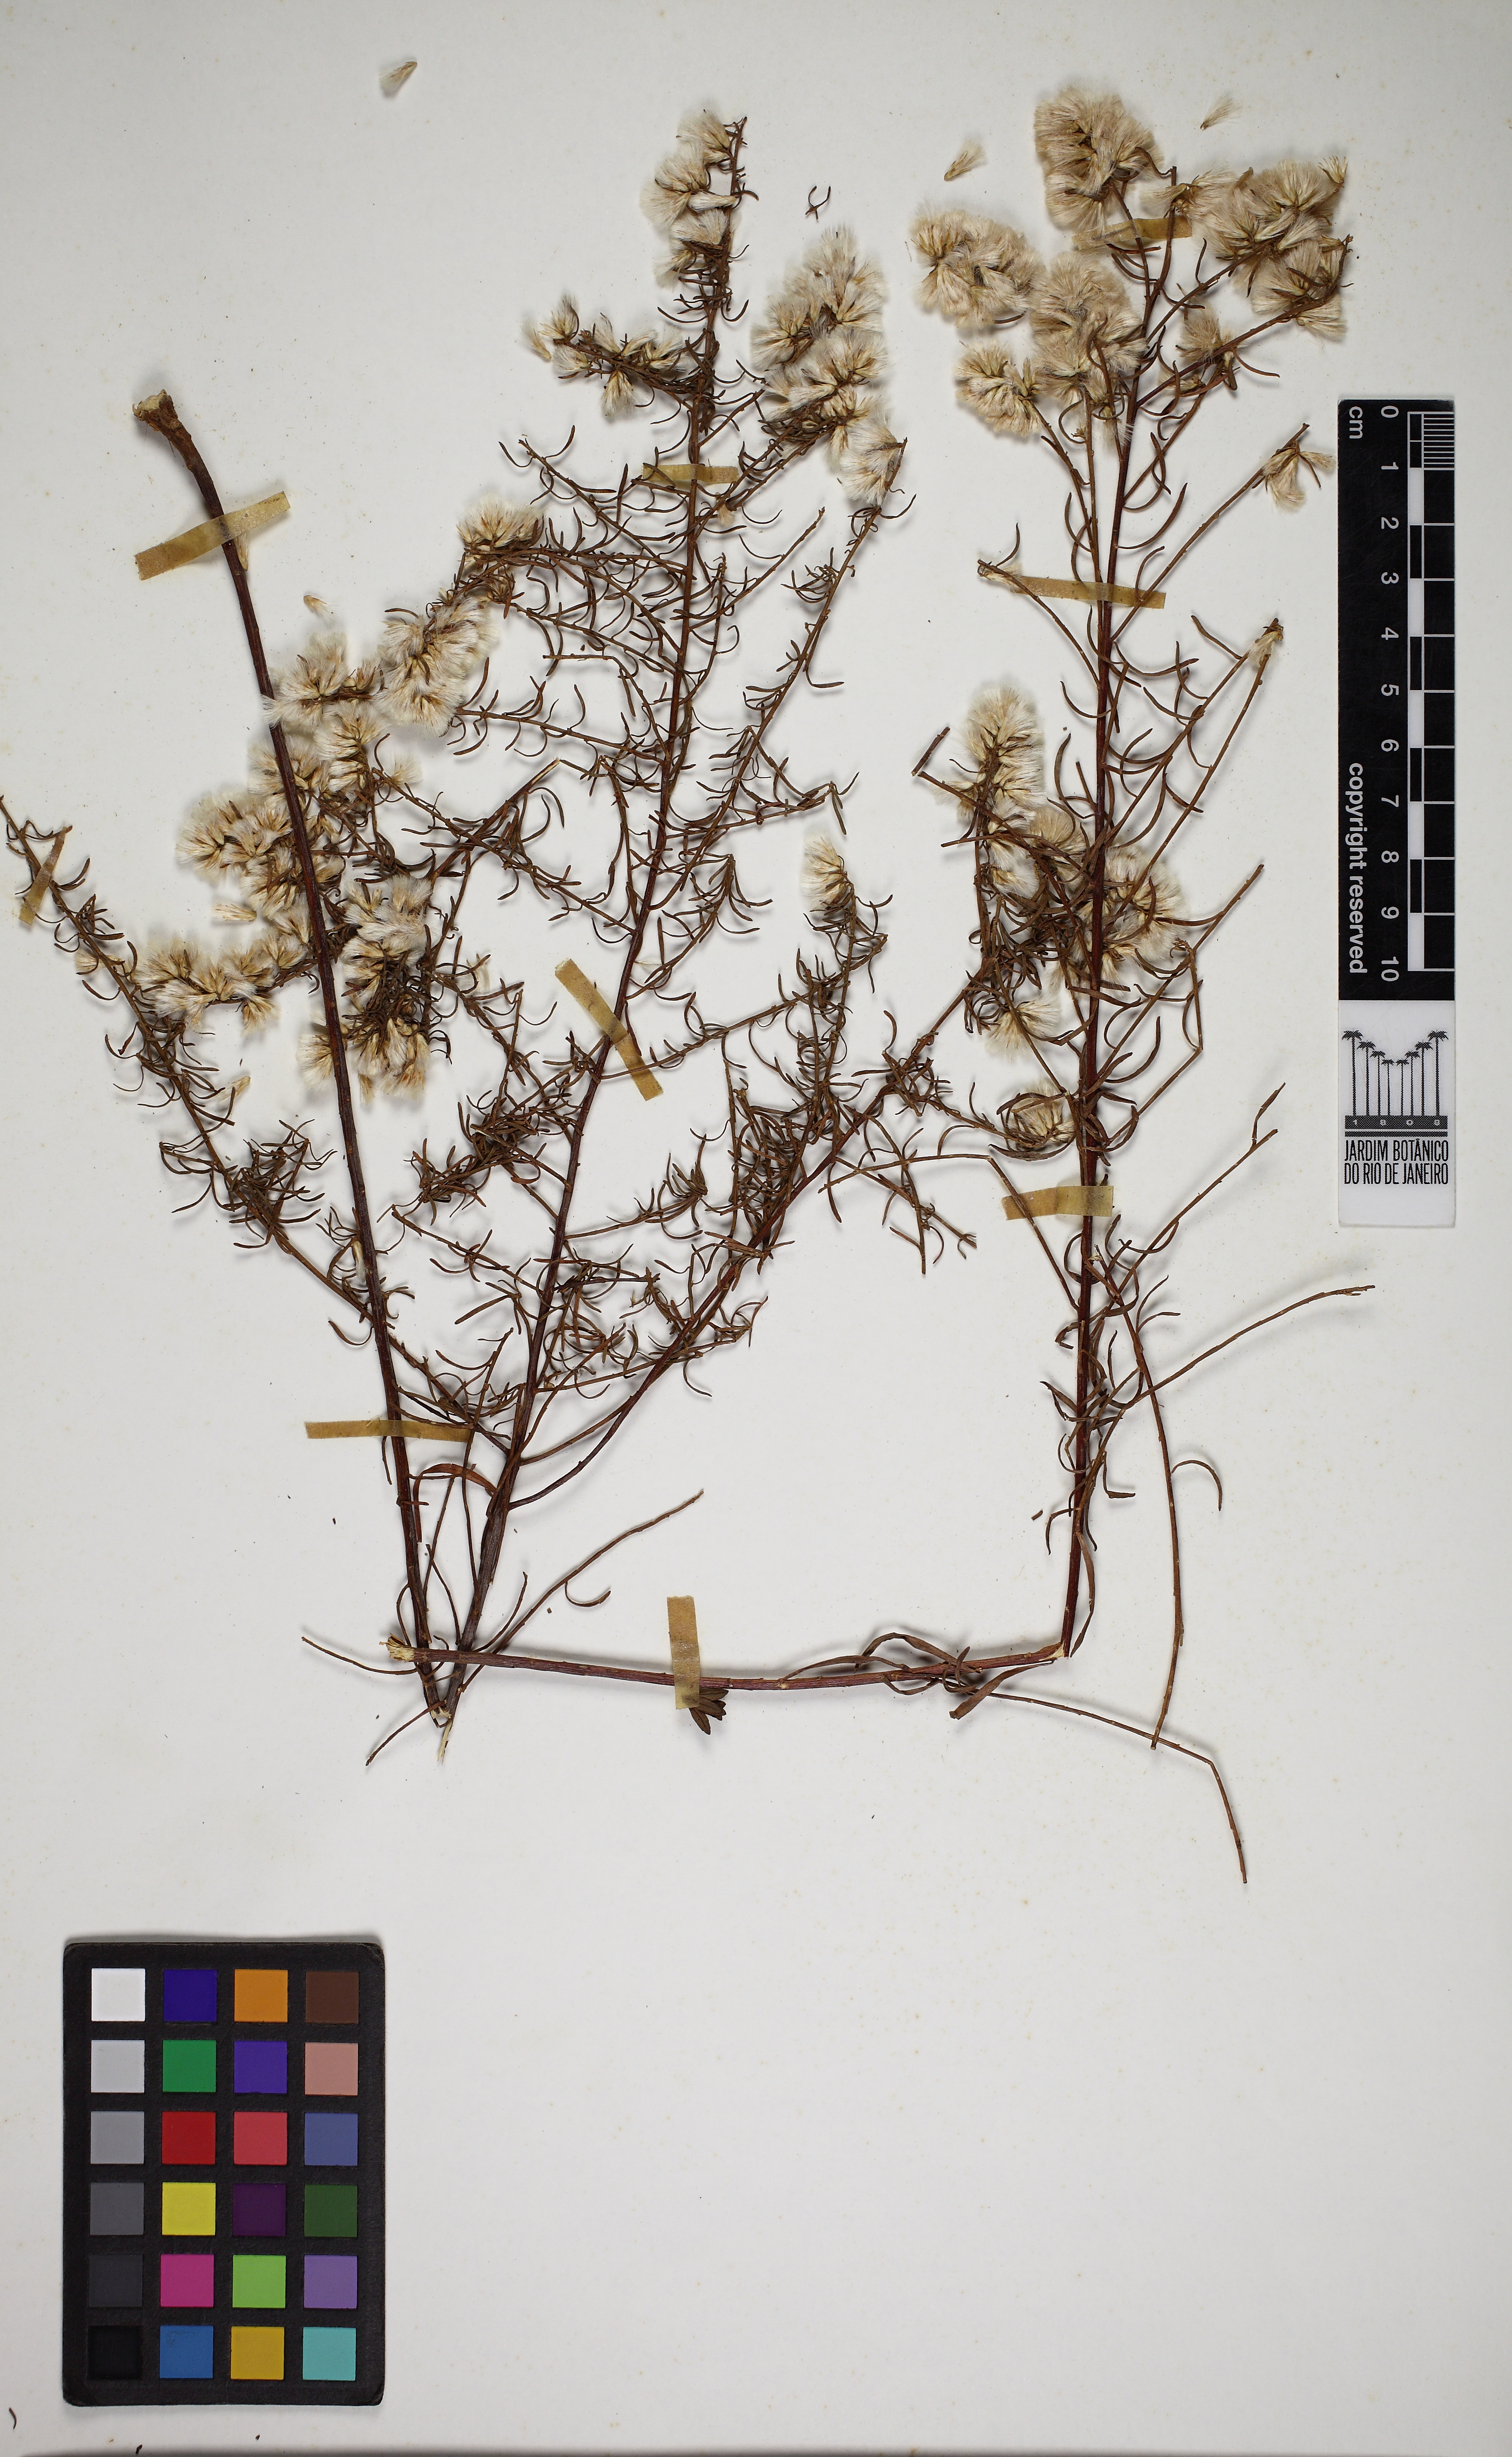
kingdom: Plantae
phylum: Tracheophyta
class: Magnoliopsida
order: Asterales
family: Asteraceae
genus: Baccharis
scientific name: Baccharis linearifolia
